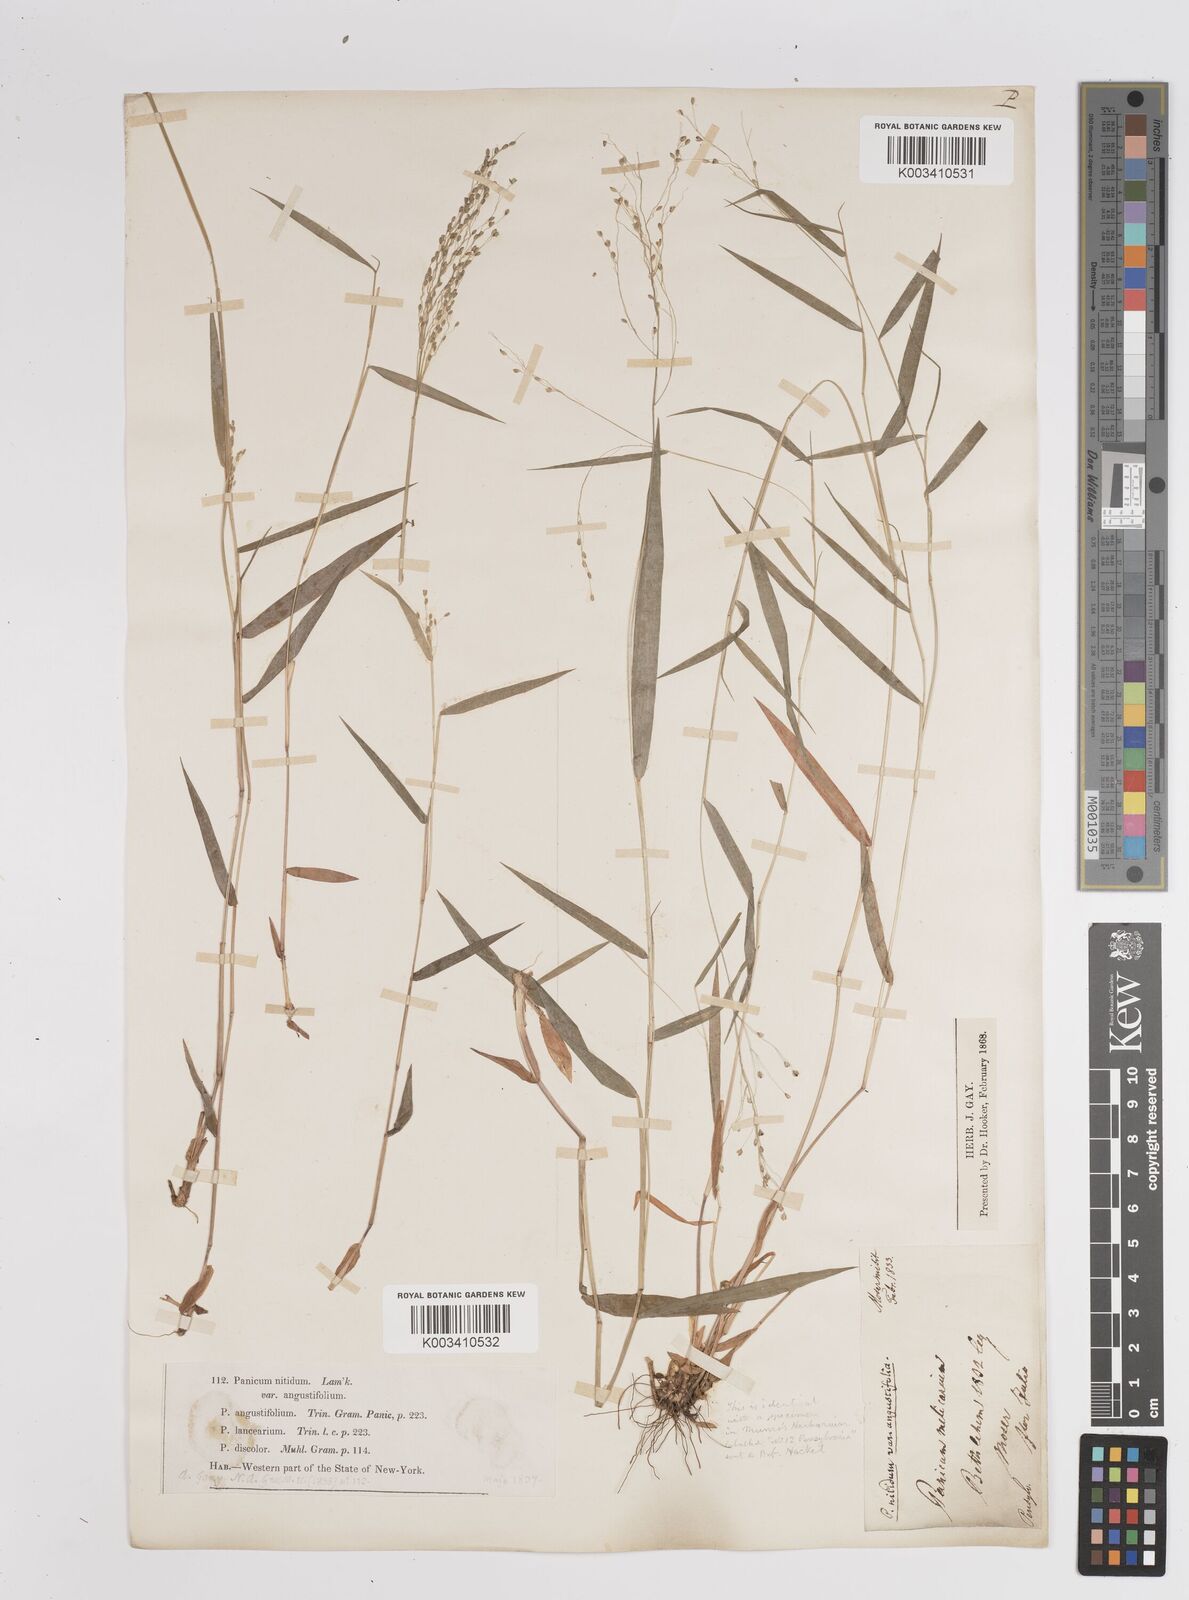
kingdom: Plantae
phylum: Tracheophyta
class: Liliopsida
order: Poales
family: Poaceae
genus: Dichanthelium
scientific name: Dichanthelium polyanthes
